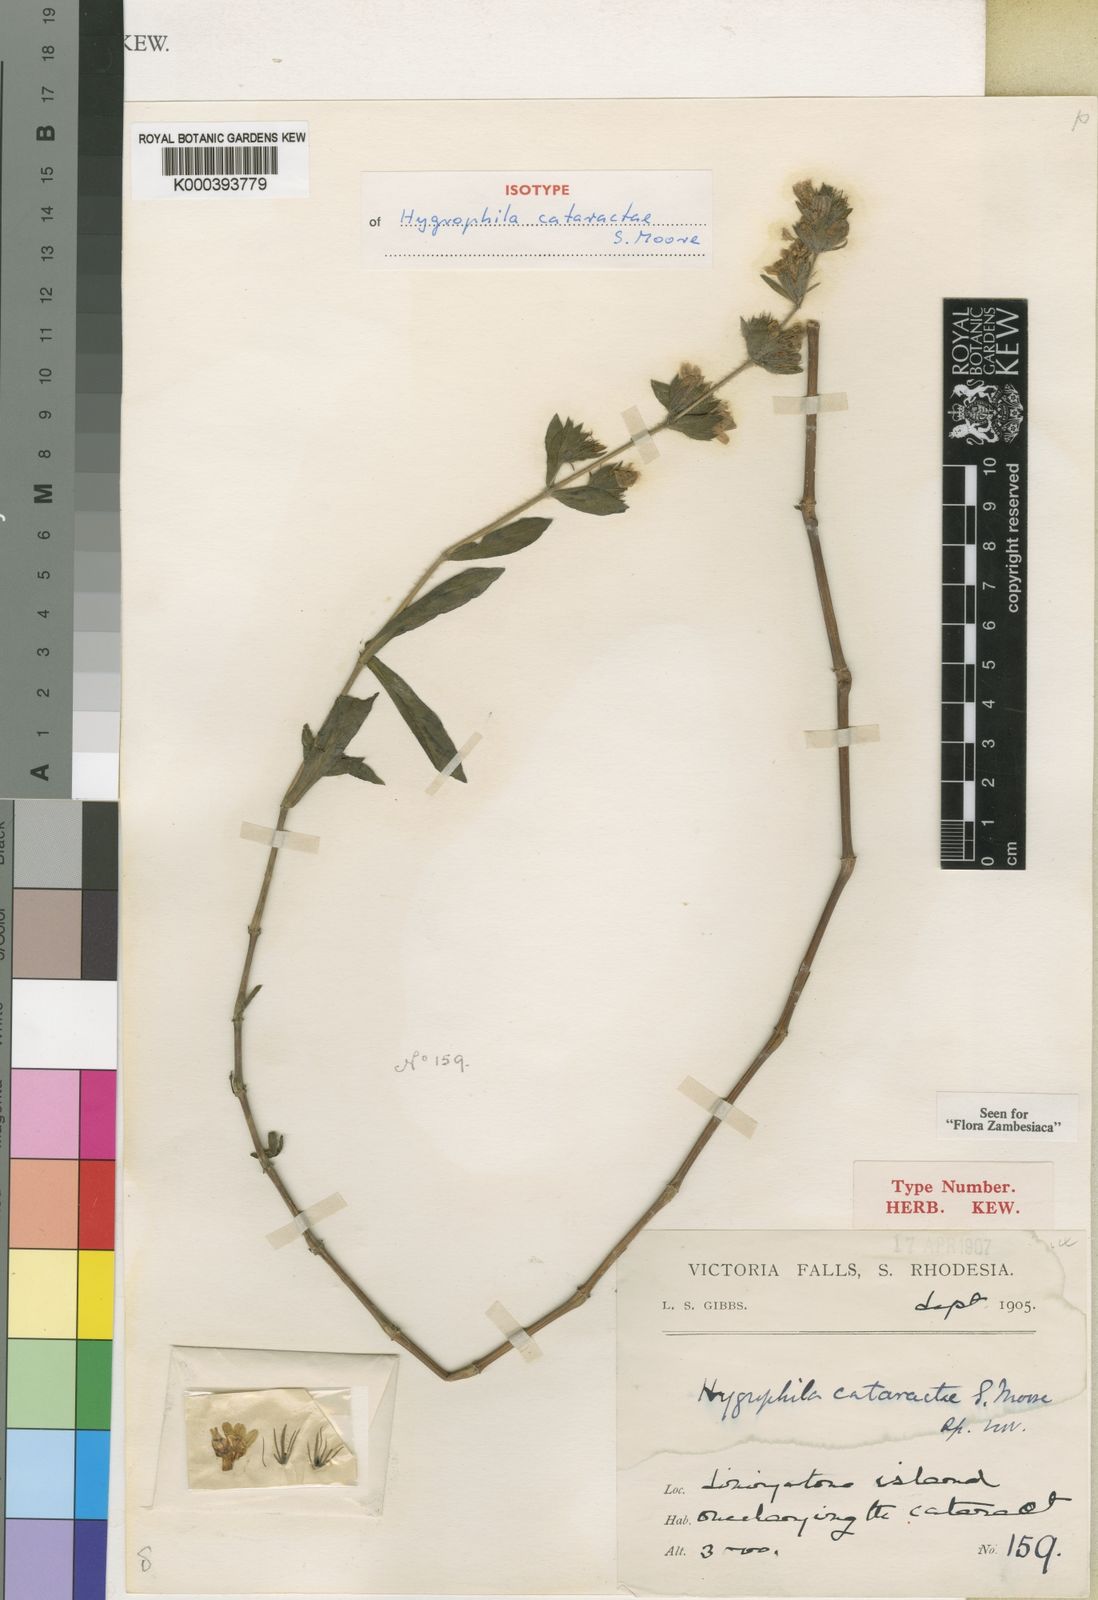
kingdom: Plantae
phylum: Tracheophyta
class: Magnoliopsida
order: Lamiales
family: Acanthaceae
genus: Hygrophila
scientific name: Hygrophila cataractae
